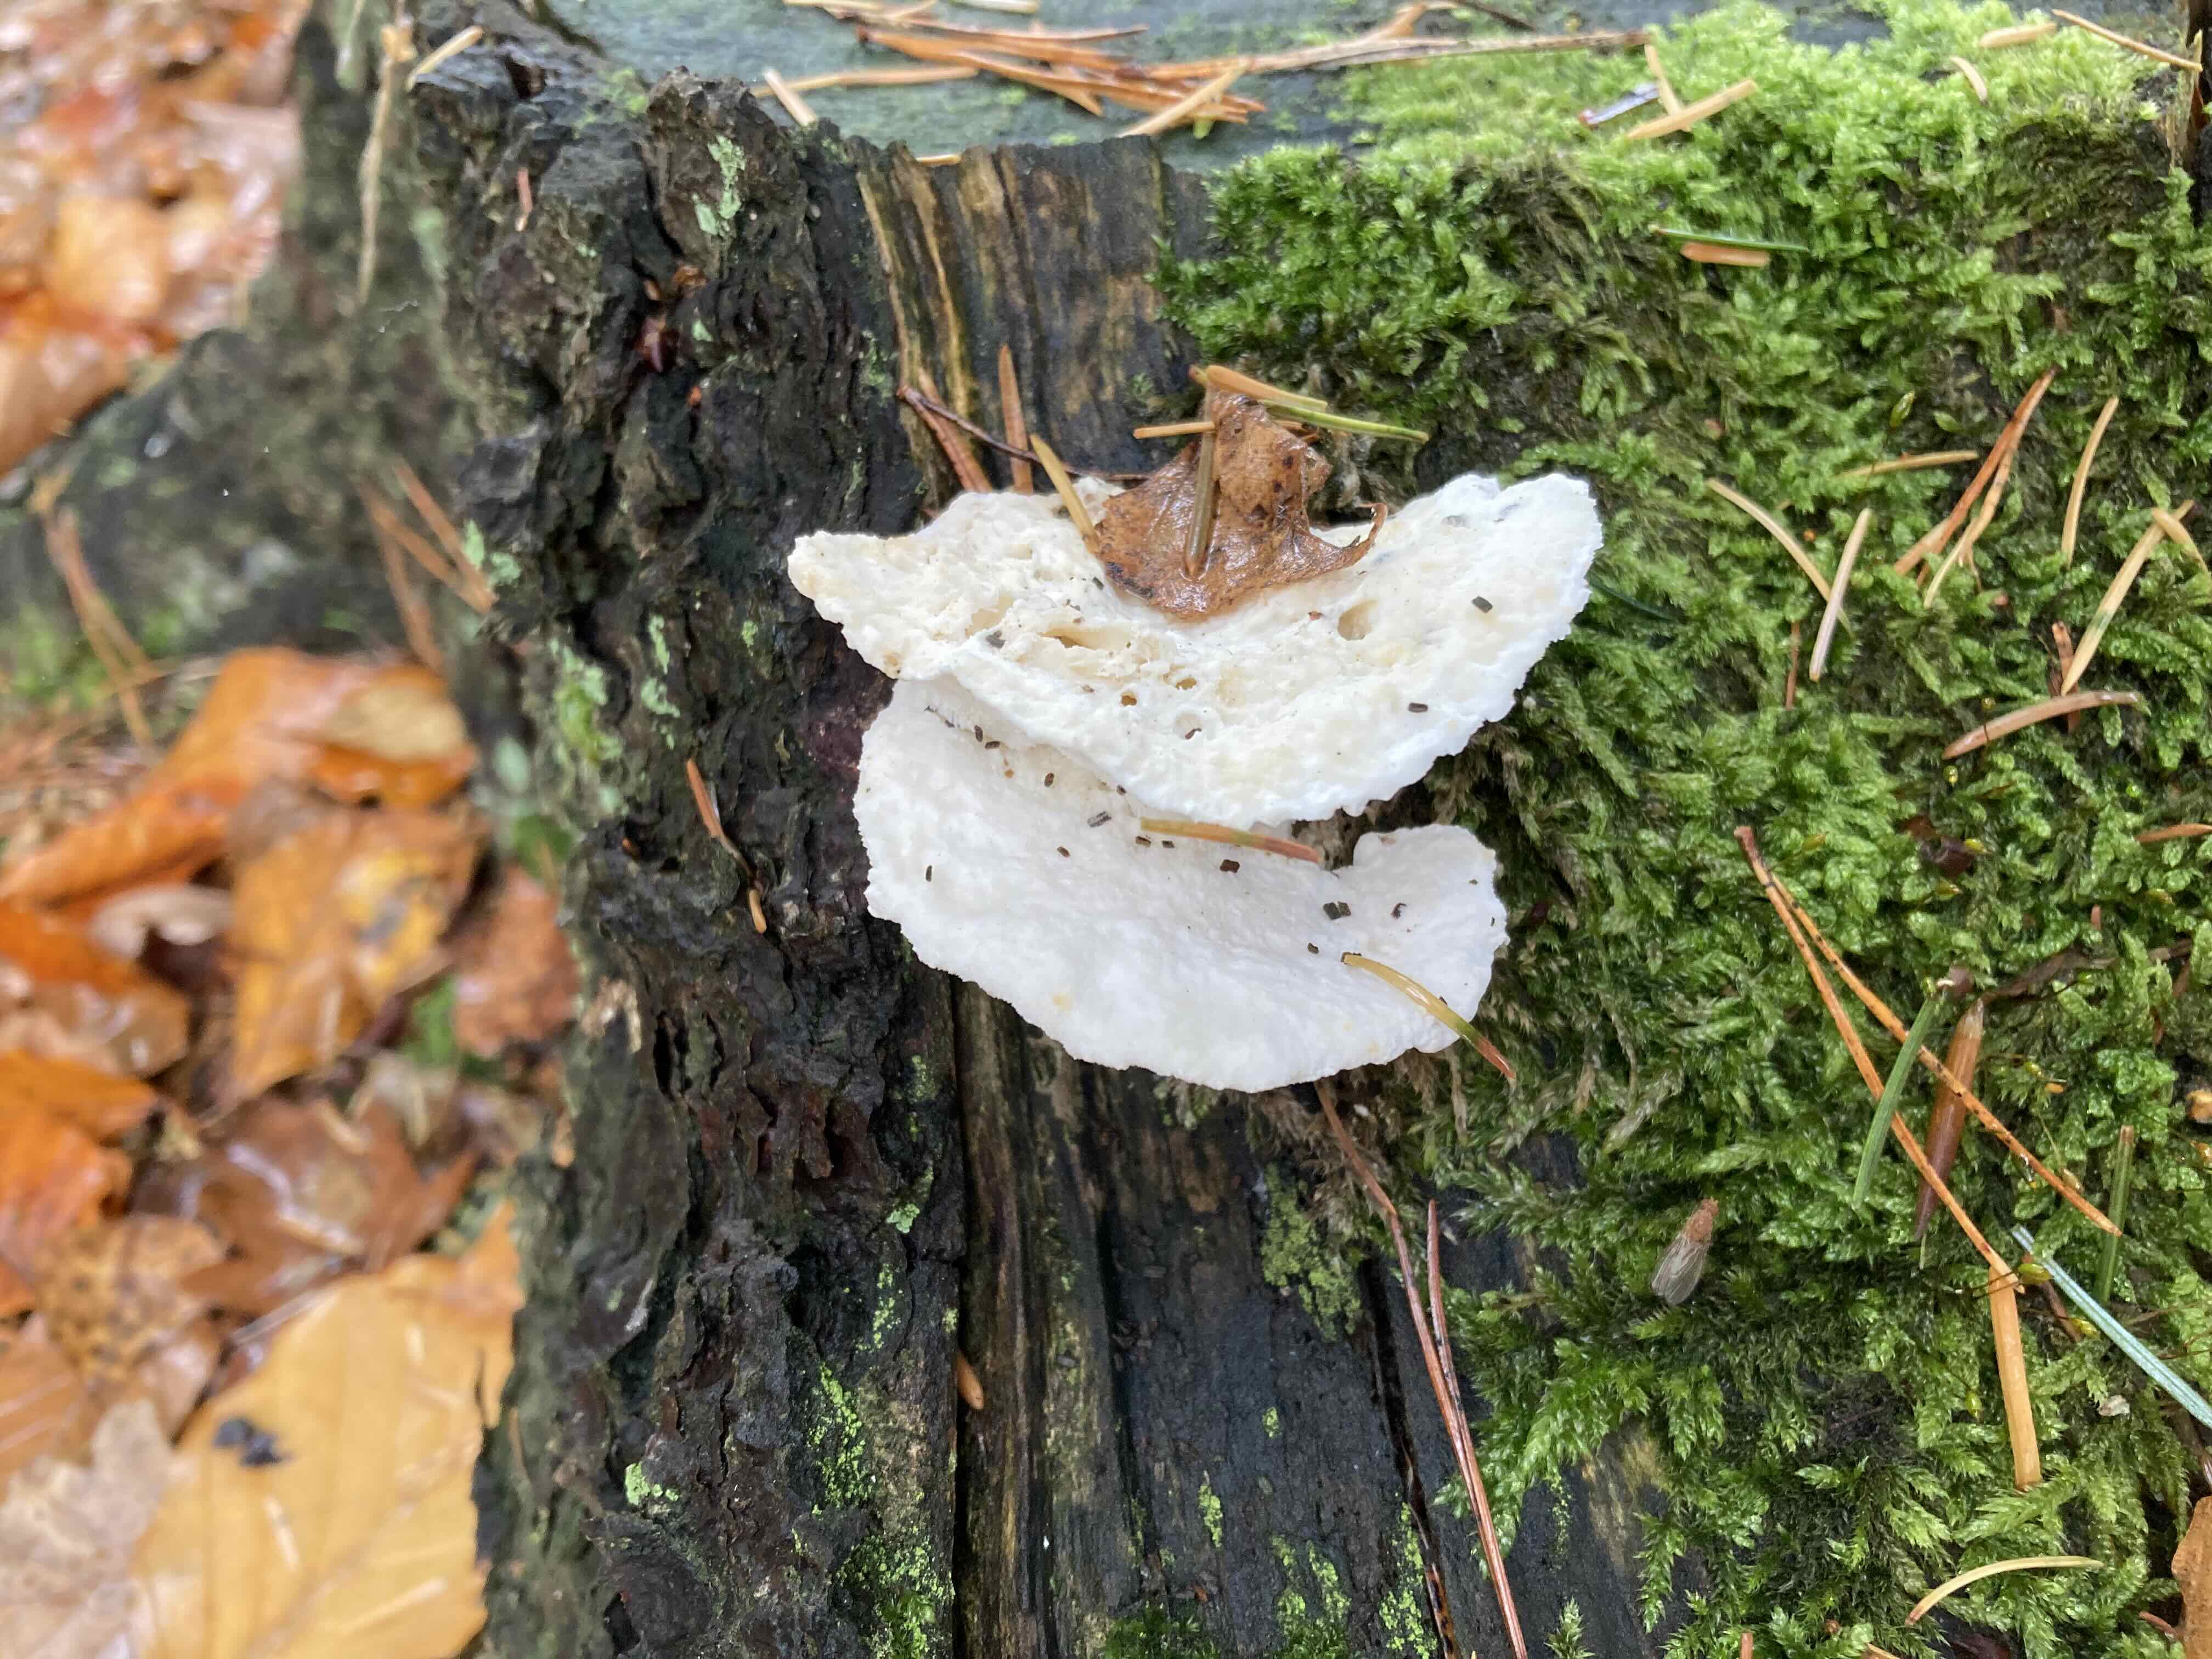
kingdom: Fungi
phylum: Basidiomycota
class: Agaricomycetes
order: Polyporales
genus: Amaropostia
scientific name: Amaropostia stiptica
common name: bitter kødporesvamp
